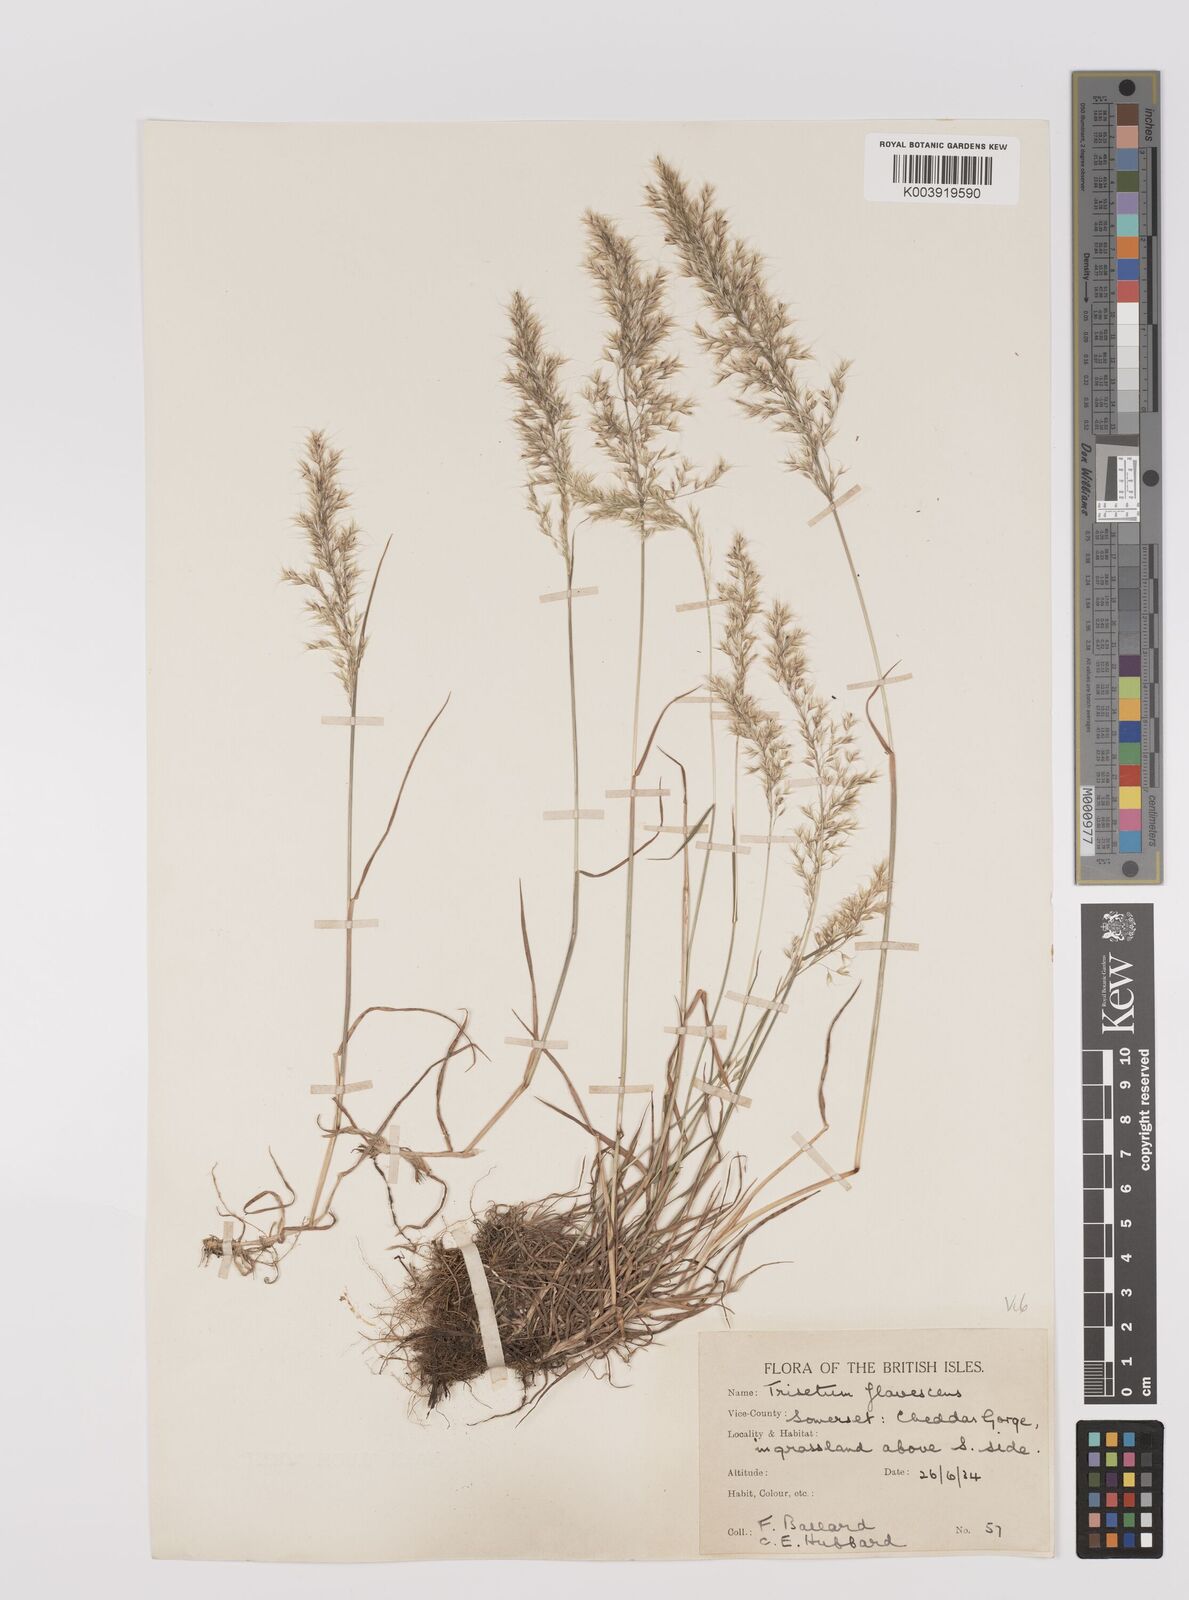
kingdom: Plantae
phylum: Tracheophyta
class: Liliopsida
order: Poales
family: Poaceae
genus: Trisetum
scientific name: Trisetum flavescens
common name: Yellow oat-grass
